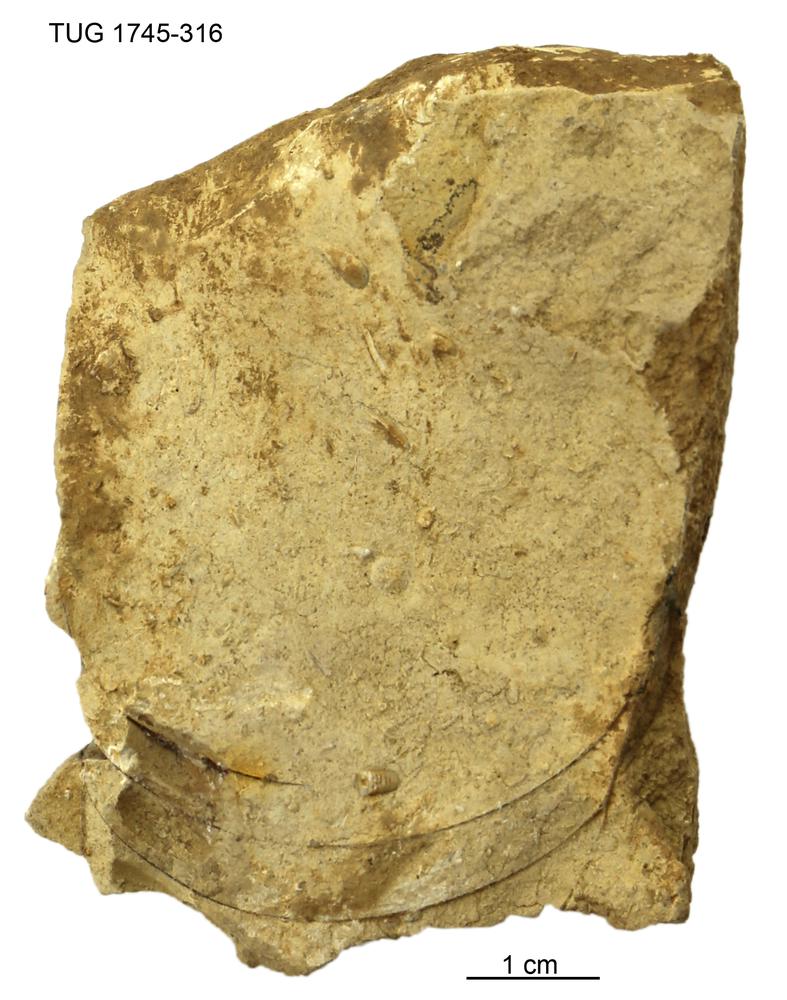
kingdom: Animalia
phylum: Mollusca
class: Cephalopoda
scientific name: Cephalopoda
